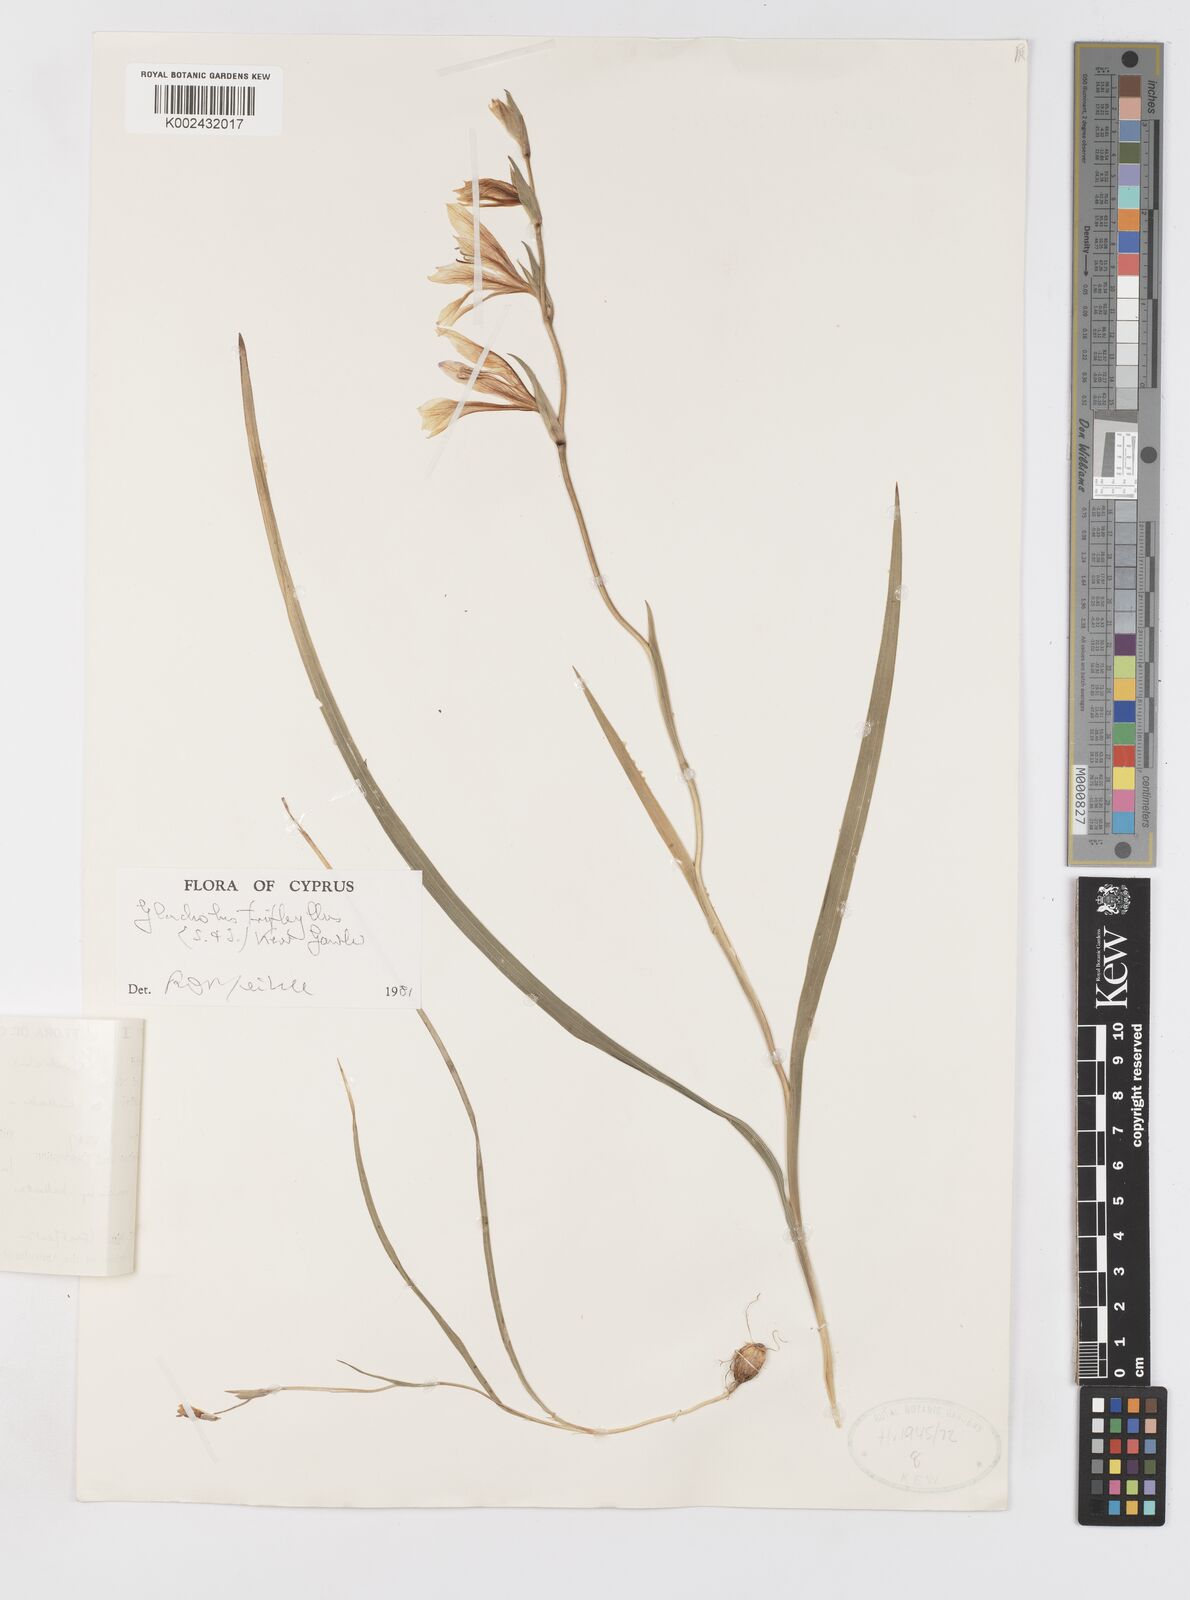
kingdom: Plantae
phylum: Tracheophyta
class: Liliopsida
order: Asparagales
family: Iridaceae
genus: Gladiolus
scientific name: Gladiolus triphyllus
